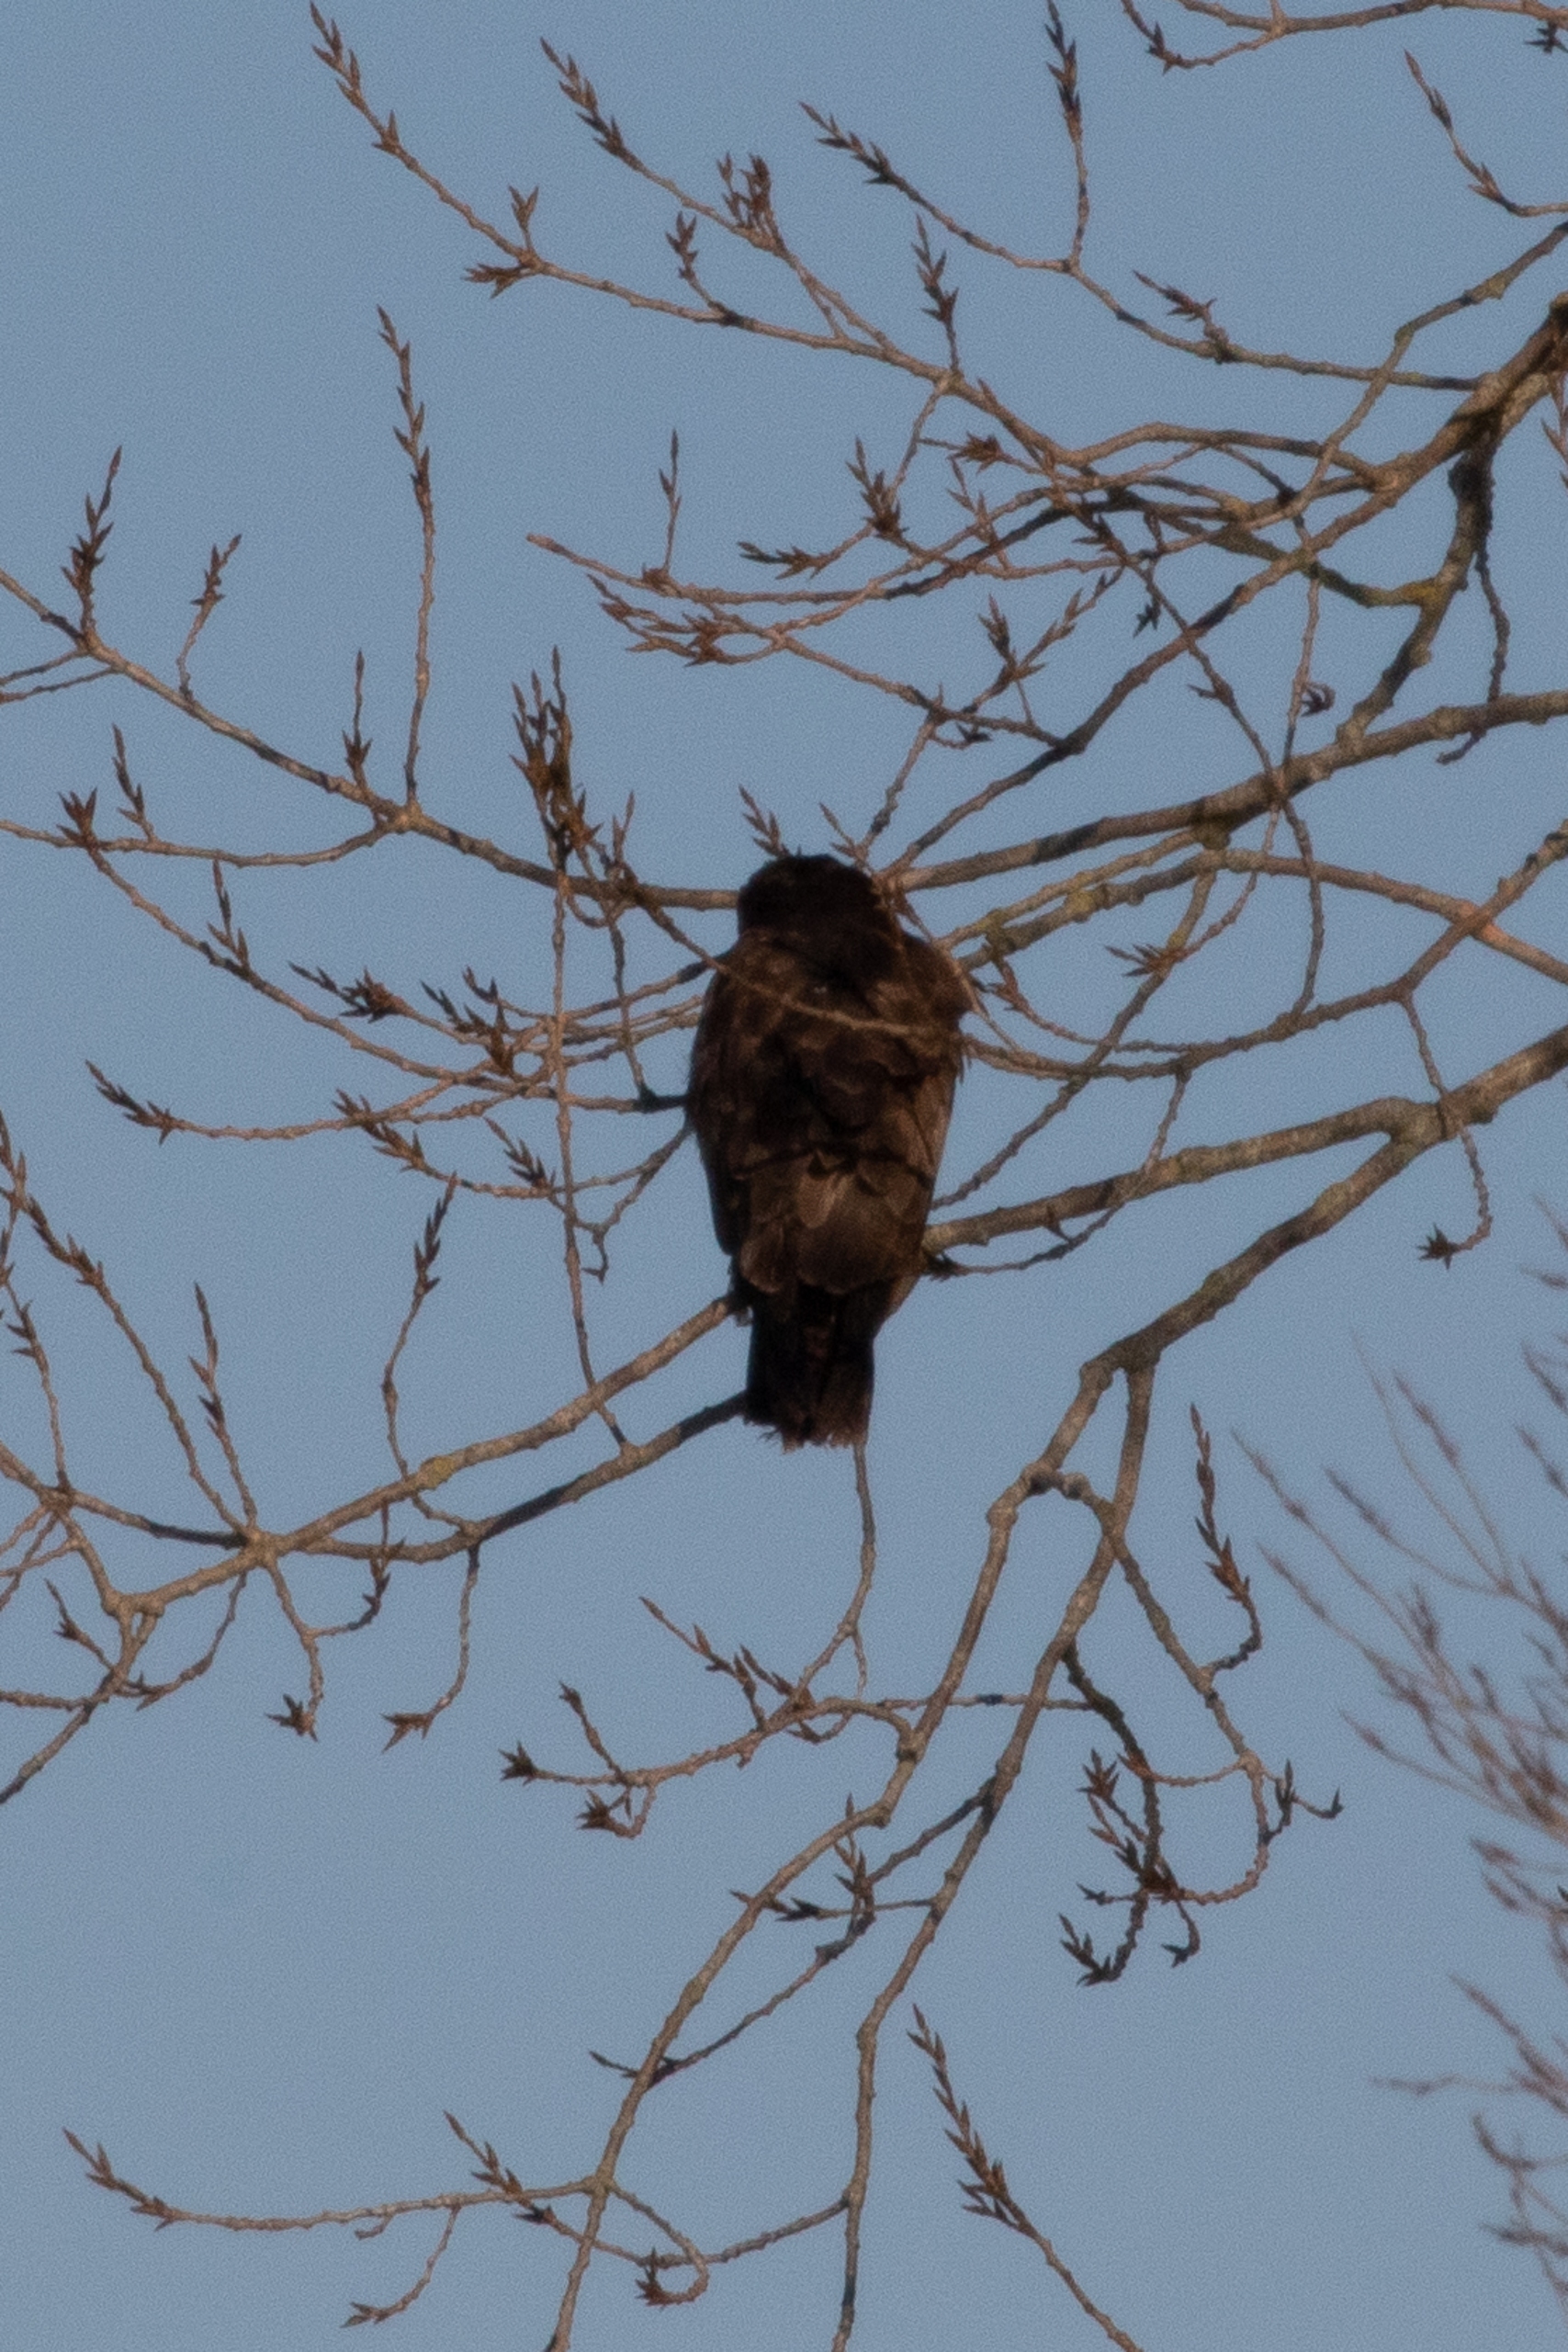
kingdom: Animalia
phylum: Chordata
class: Aves
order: Accipitriformes
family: Accipitridae
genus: Buteo
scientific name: Buteo buteo
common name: Musvåge
